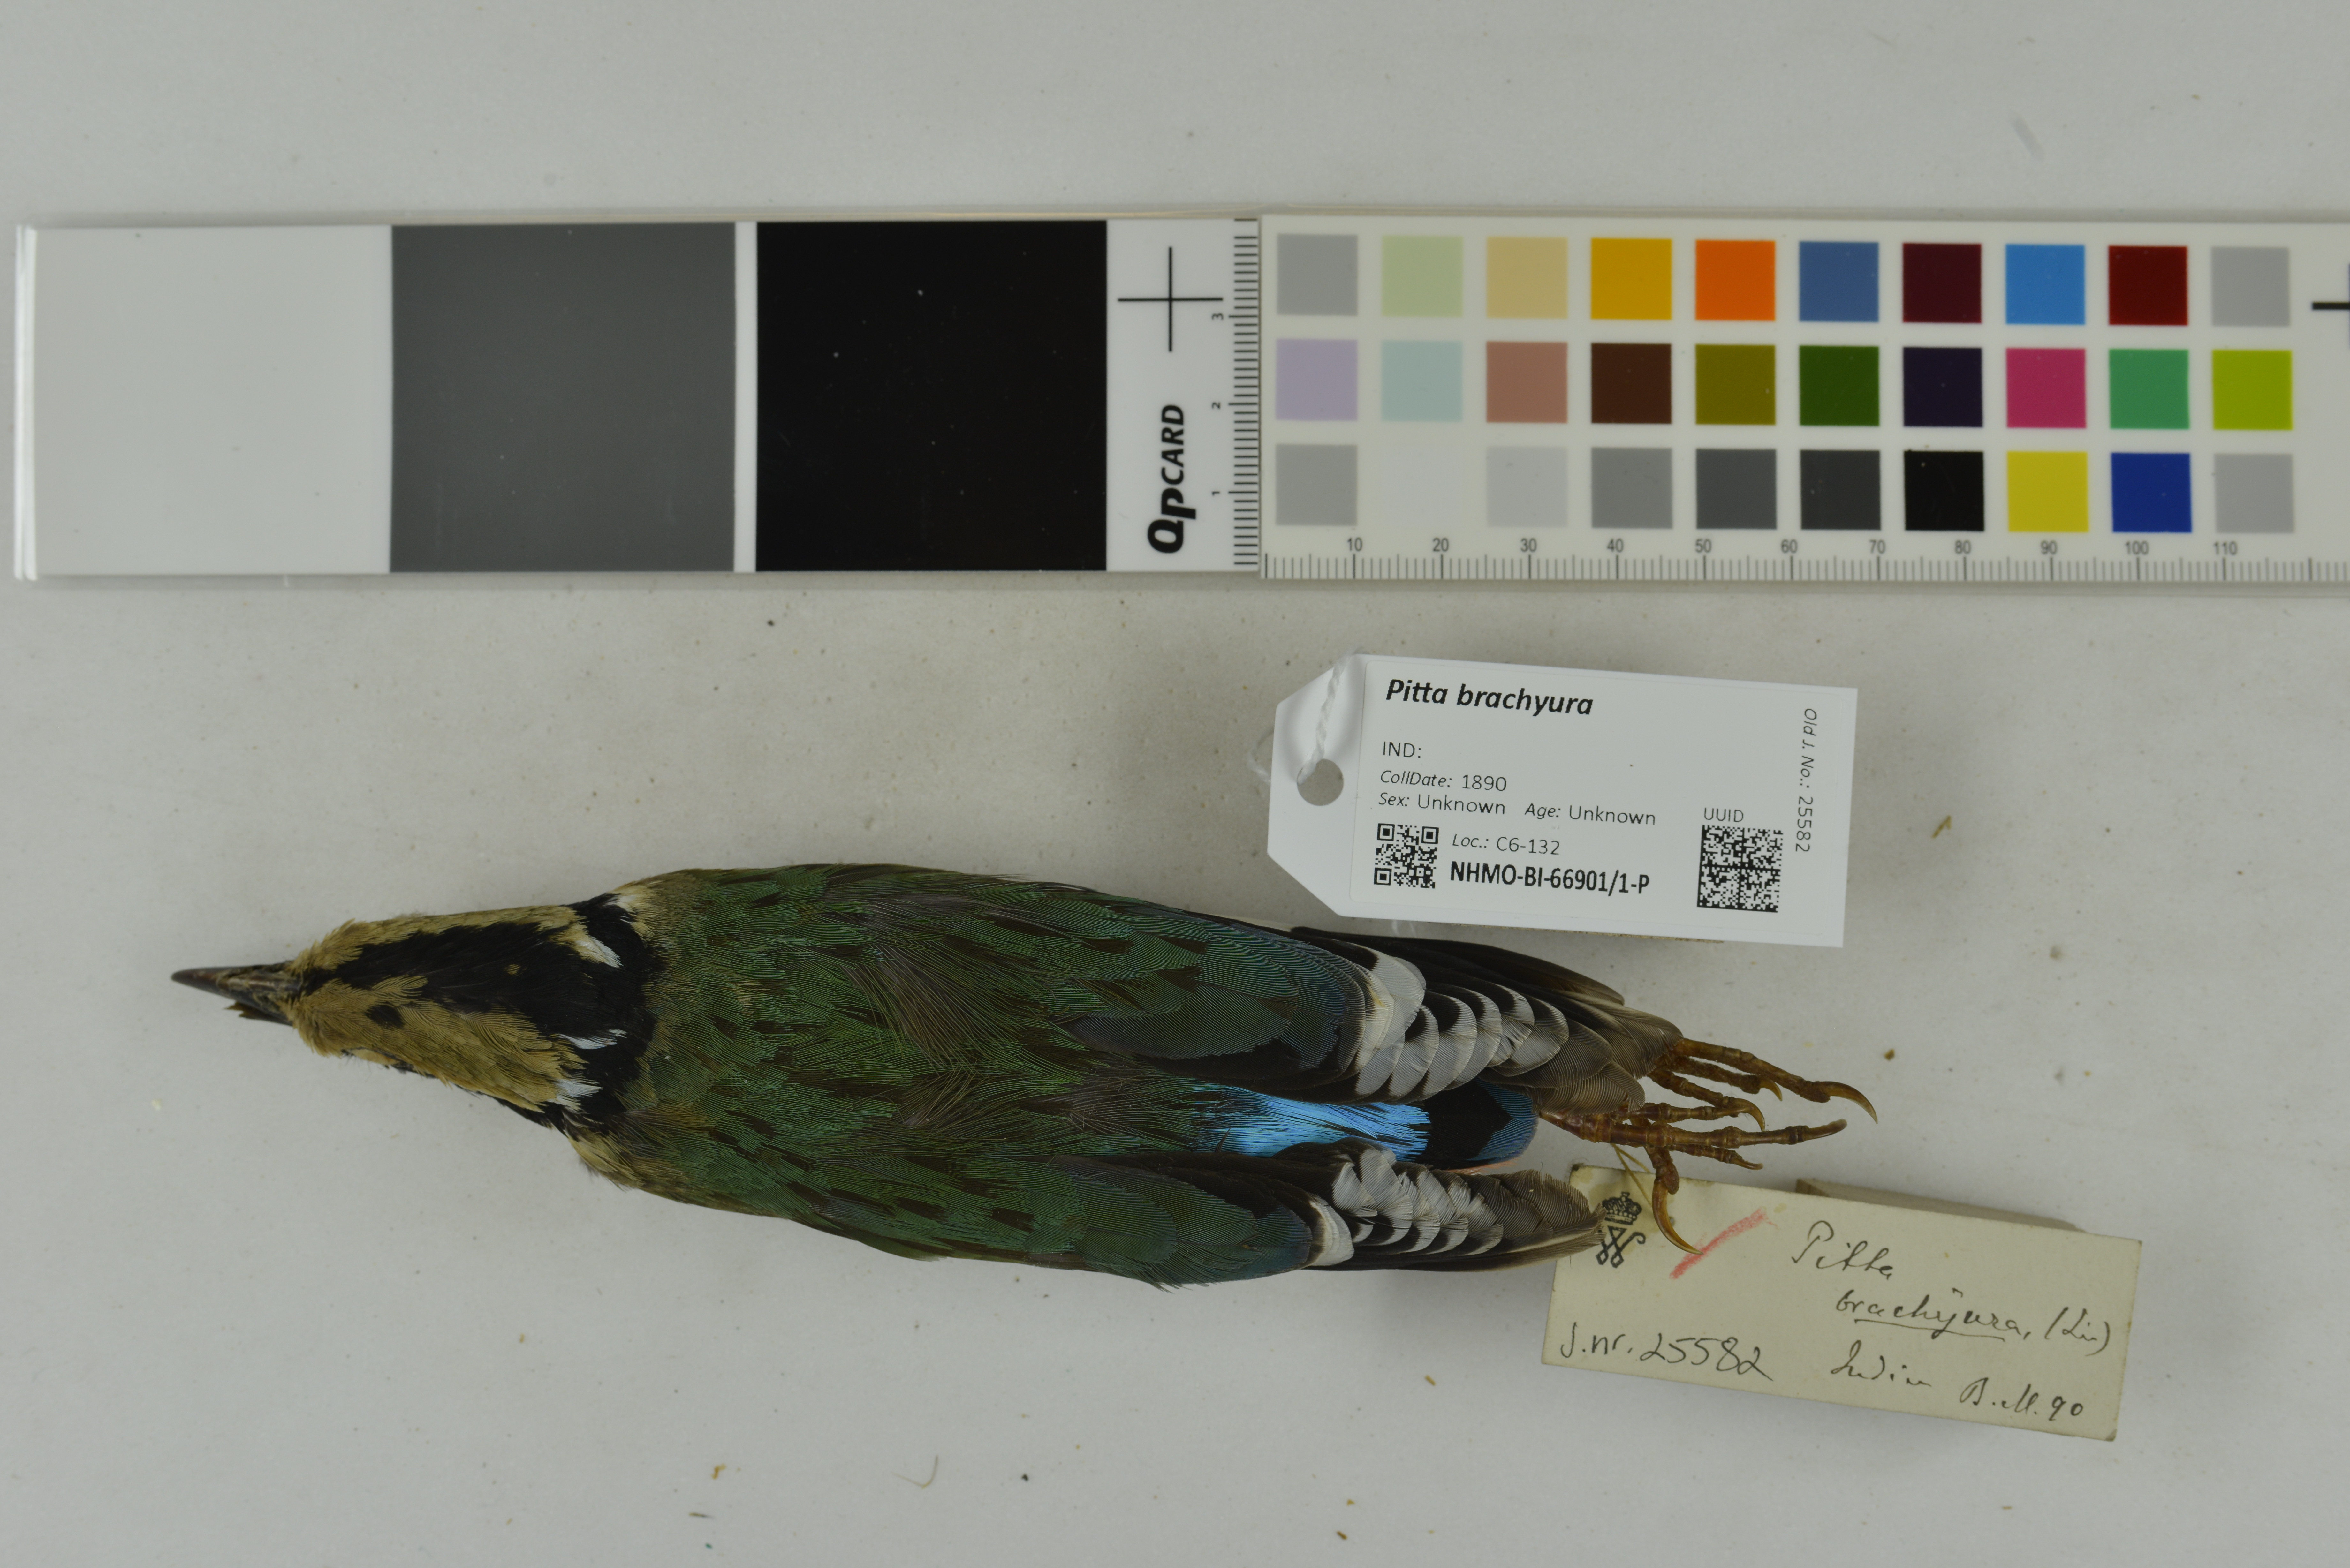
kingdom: Animalia
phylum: Chordata
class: Aves
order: Passeriformes
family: Pittidae
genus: Pitta
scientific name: Pitta brachyura
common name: Indian pitta
